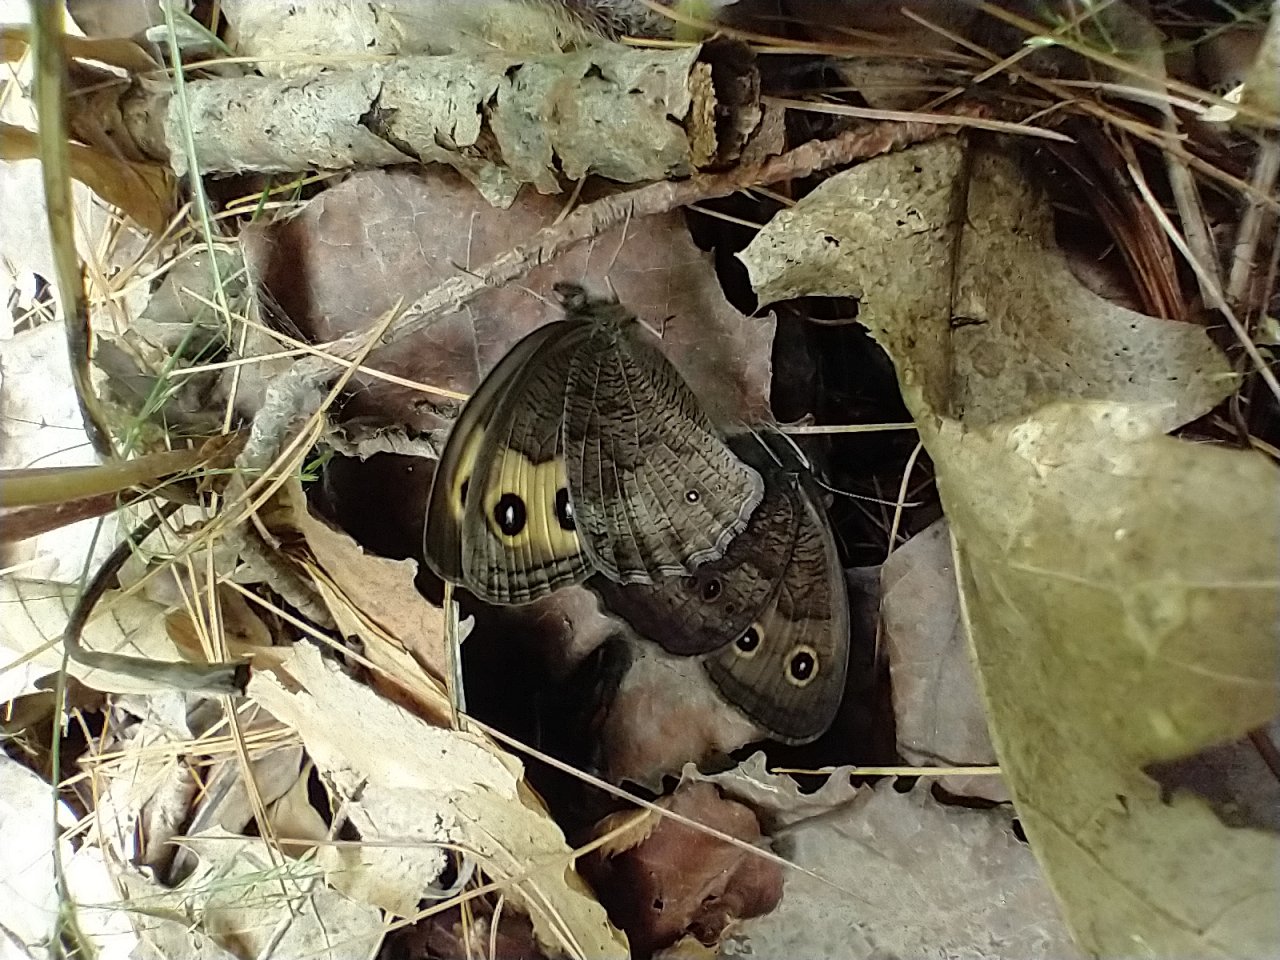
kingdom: Animalia
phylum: Arthropoda
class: Insecta
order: Lepidoptera
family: Nymphalidae
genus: Cercyonis
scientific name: Cercyonis pegala
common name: Common Wood-Nymph
